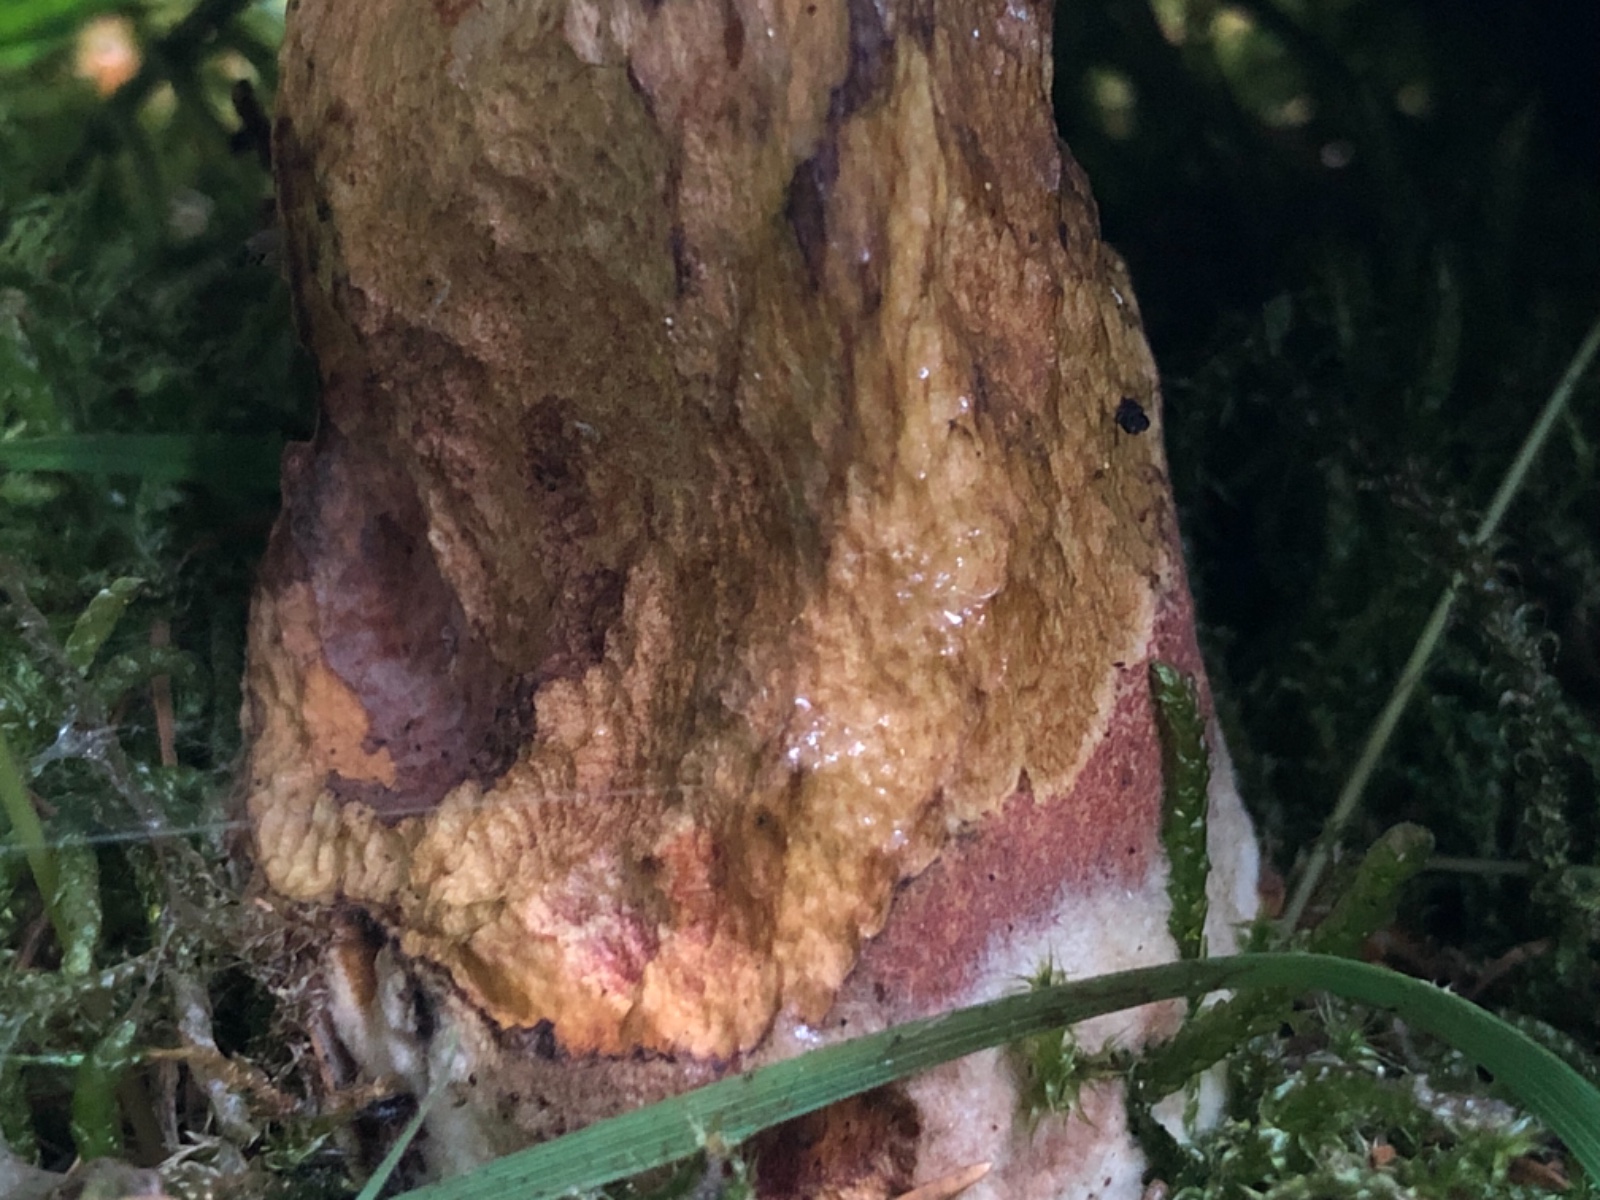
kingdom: Fungi
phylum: Basidiomycota
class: Agaricomycetes
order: Boletales
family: Boletaceae
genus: Neoboletus
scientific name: Neoboletus erythropus
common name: punktstokket indigorørhat
